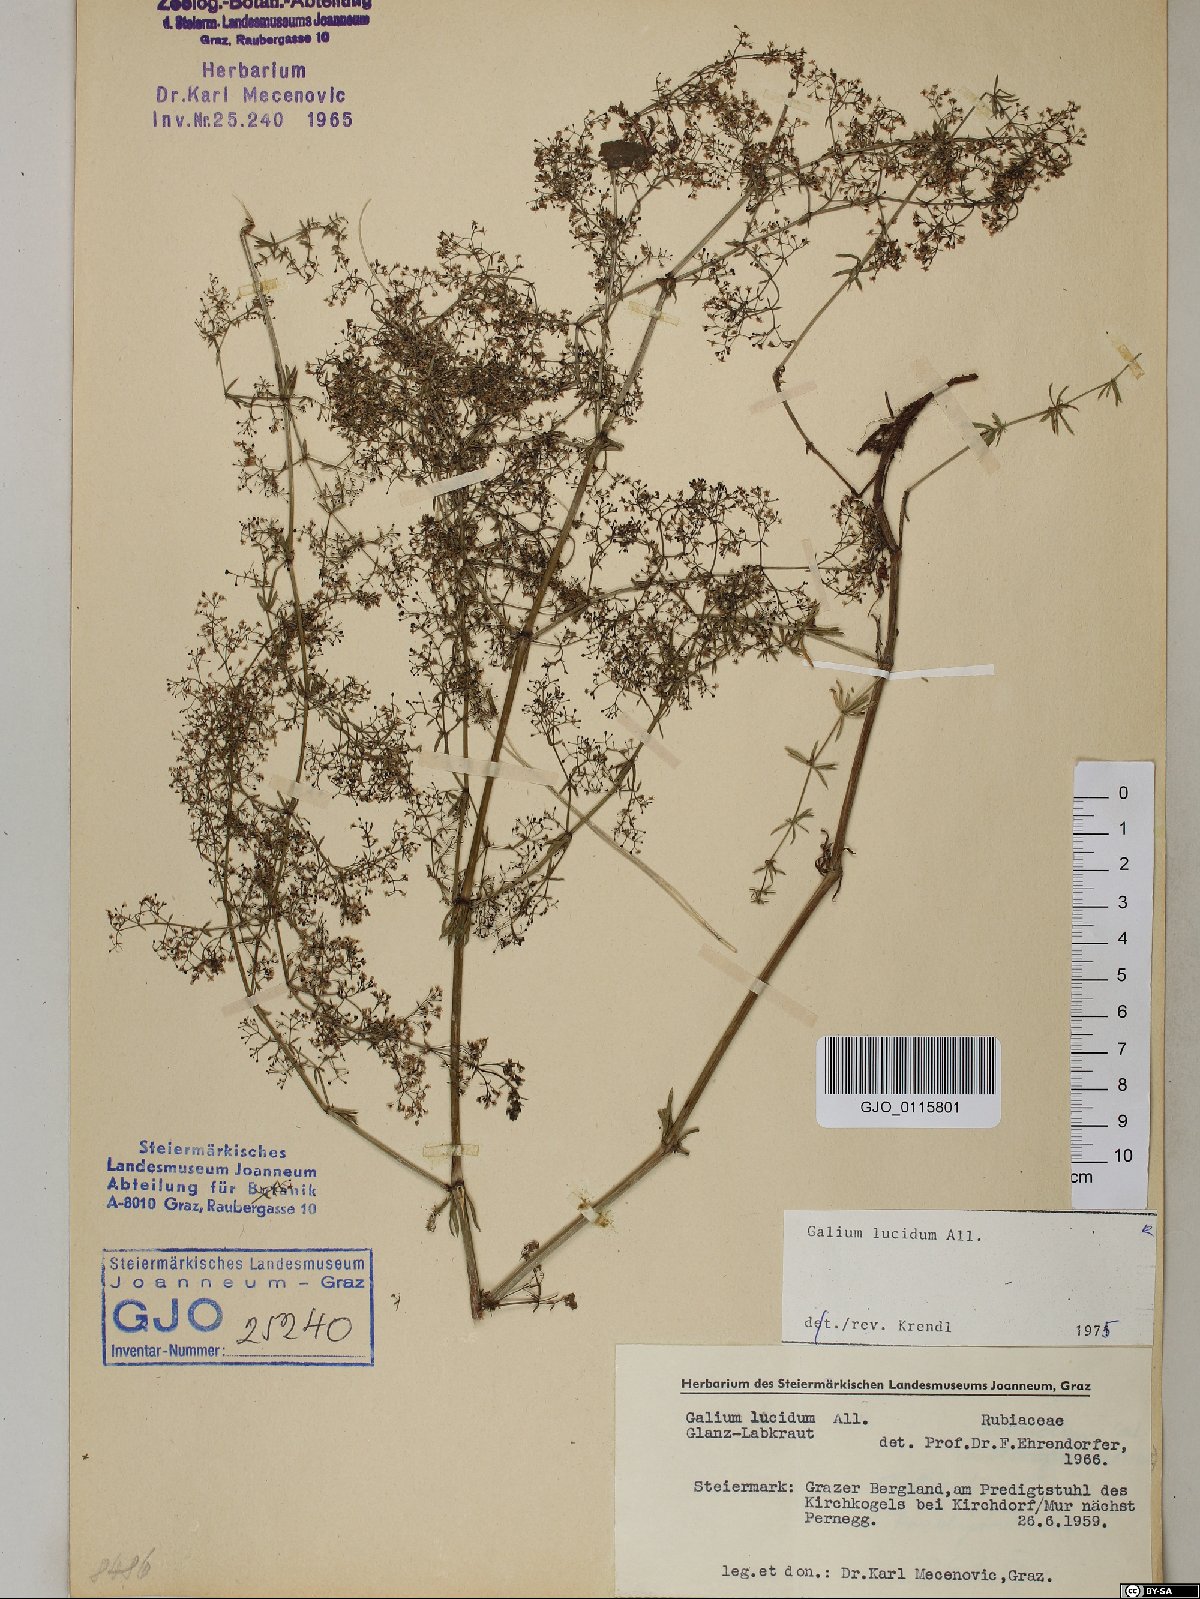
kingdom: Plantae
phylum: Tracheophyta
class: Magnoliopsida
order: Gentianales
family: Rubiaceae
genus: Galium
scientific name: Galium lucidum
